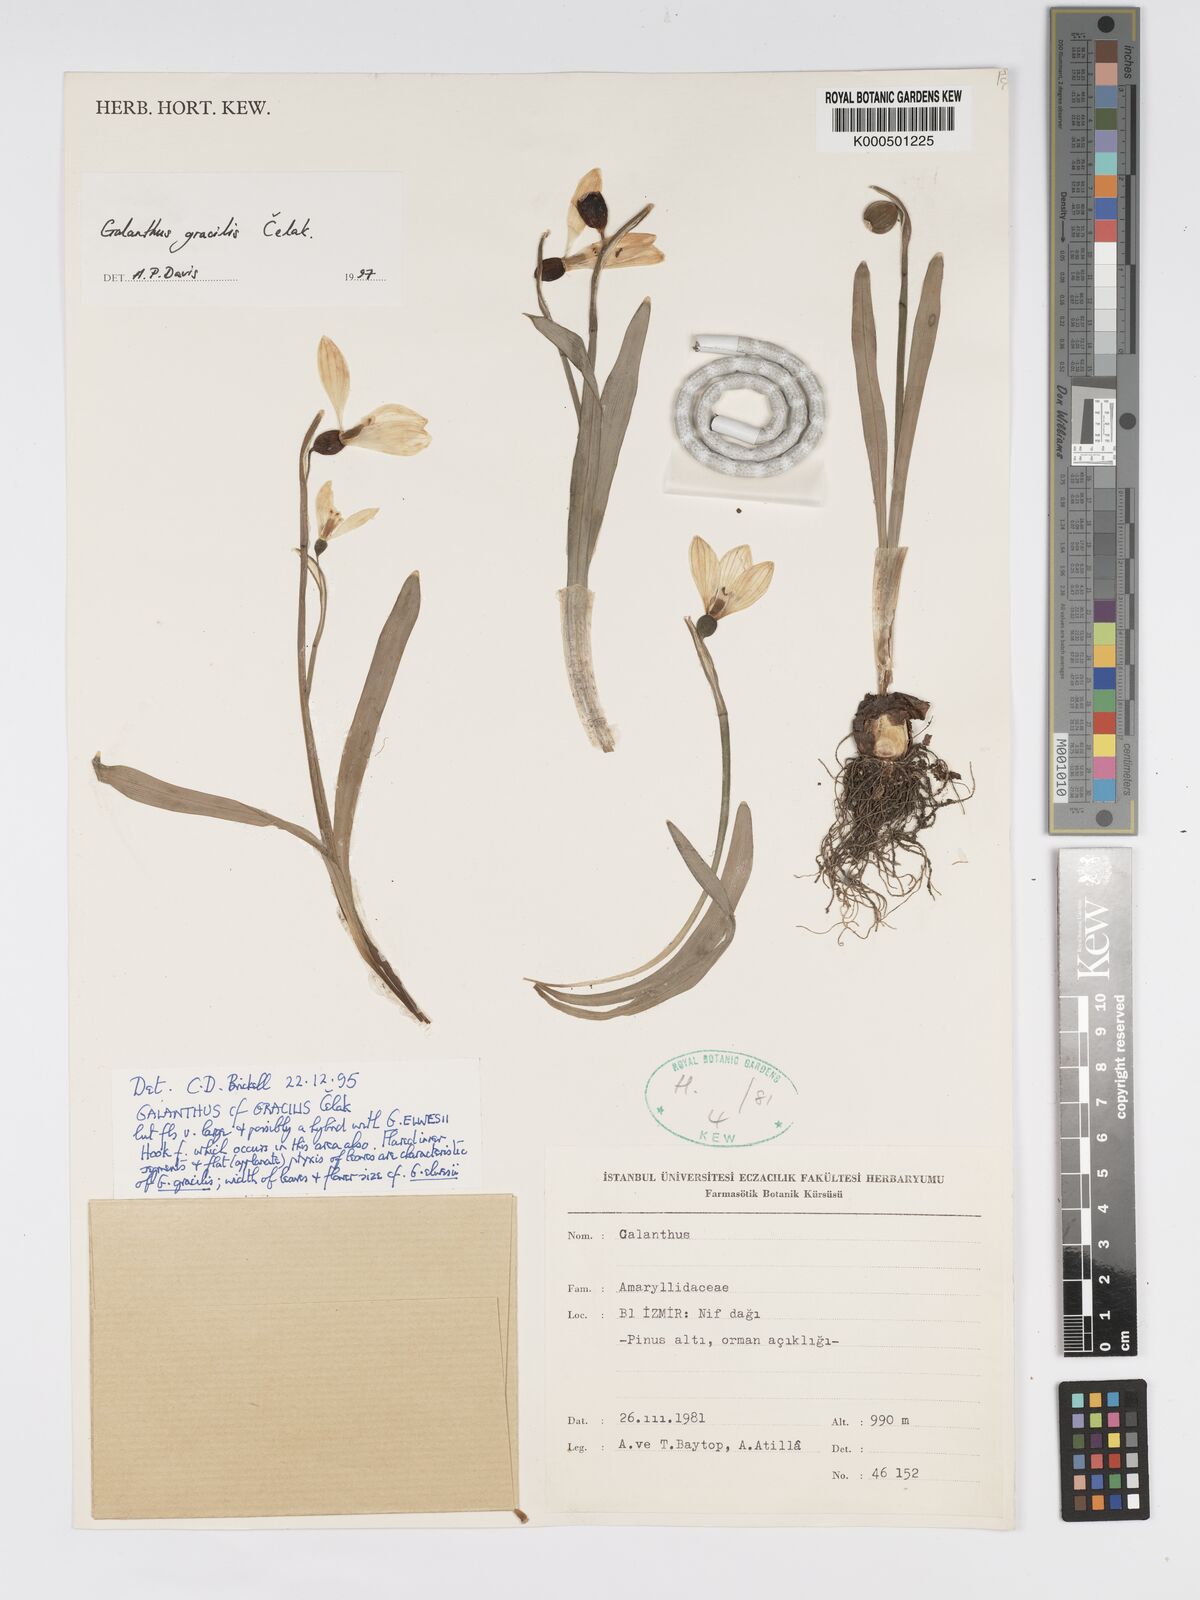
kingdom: Plantae
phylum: Tracheophyta
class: Liliopsida
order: Asparagales
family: Amaryllidaceae
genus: Galanthus
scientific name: Galanthus gracilis
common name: Snowdrop
